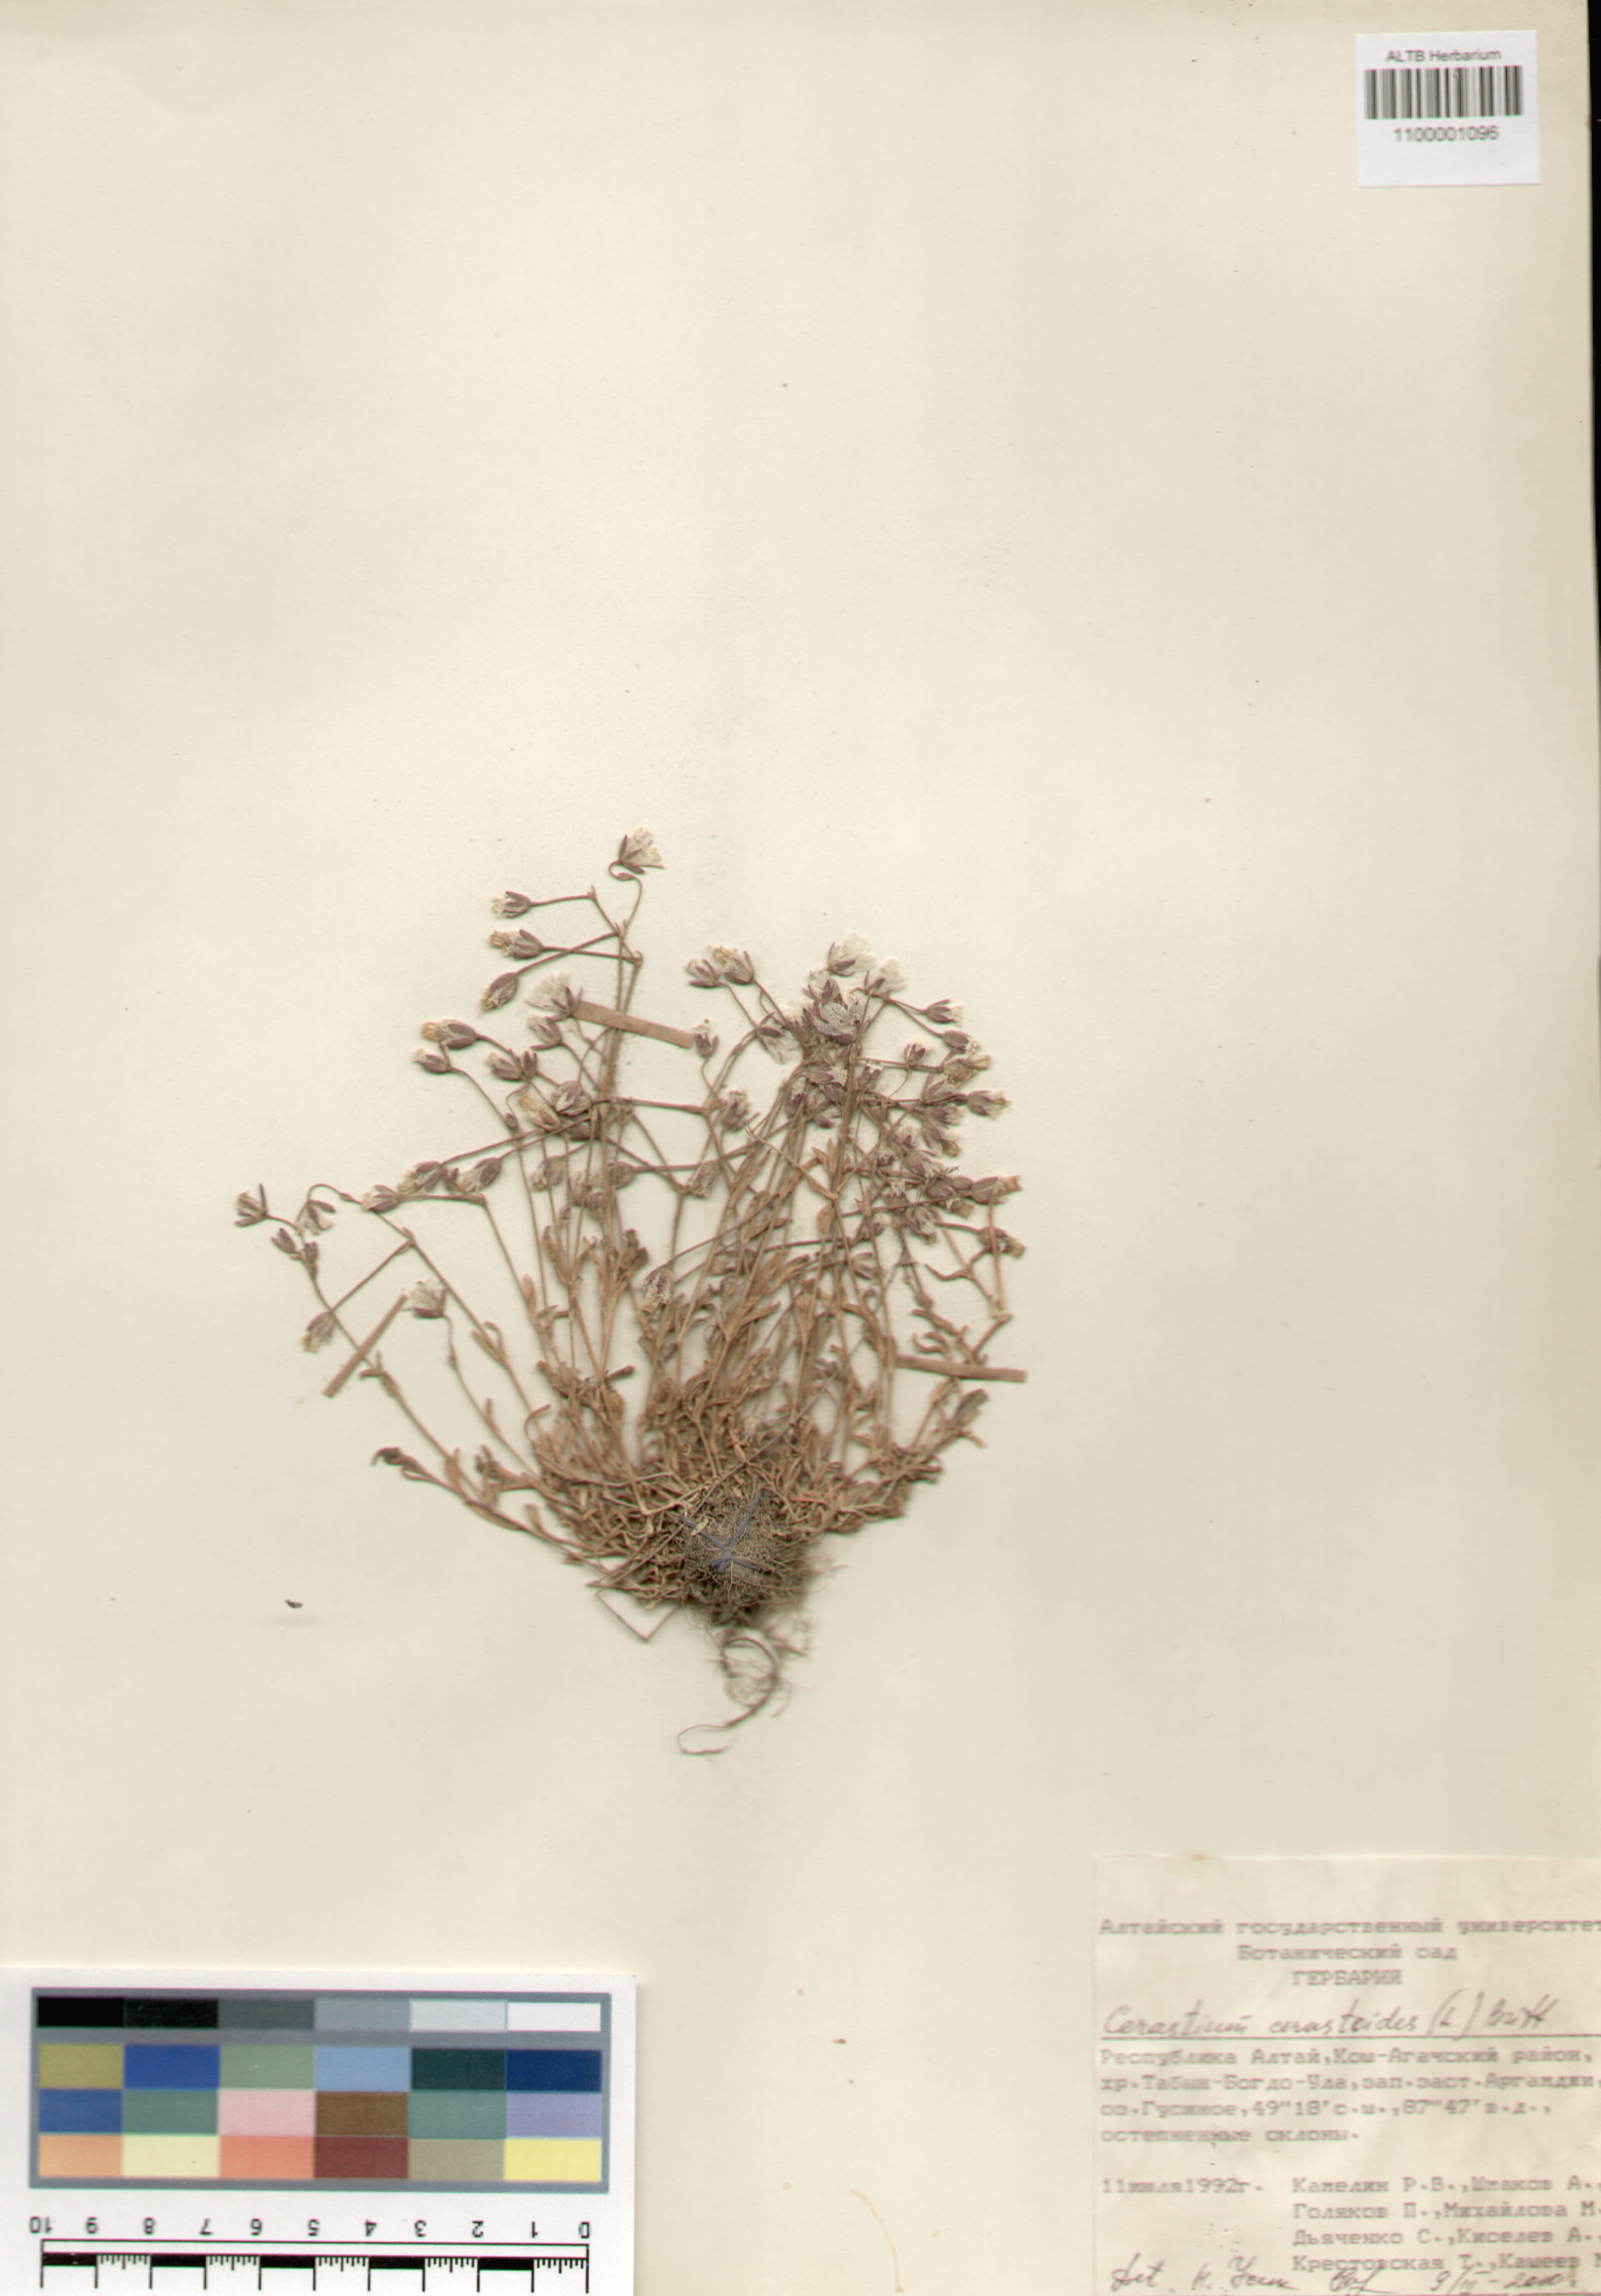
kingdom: Plantae
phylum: Tracheophyta
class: Magnoliopsida
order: Caryophyllales
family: Caryophyllaceae
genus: Dichodon
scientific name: Dichodon cerastoides
